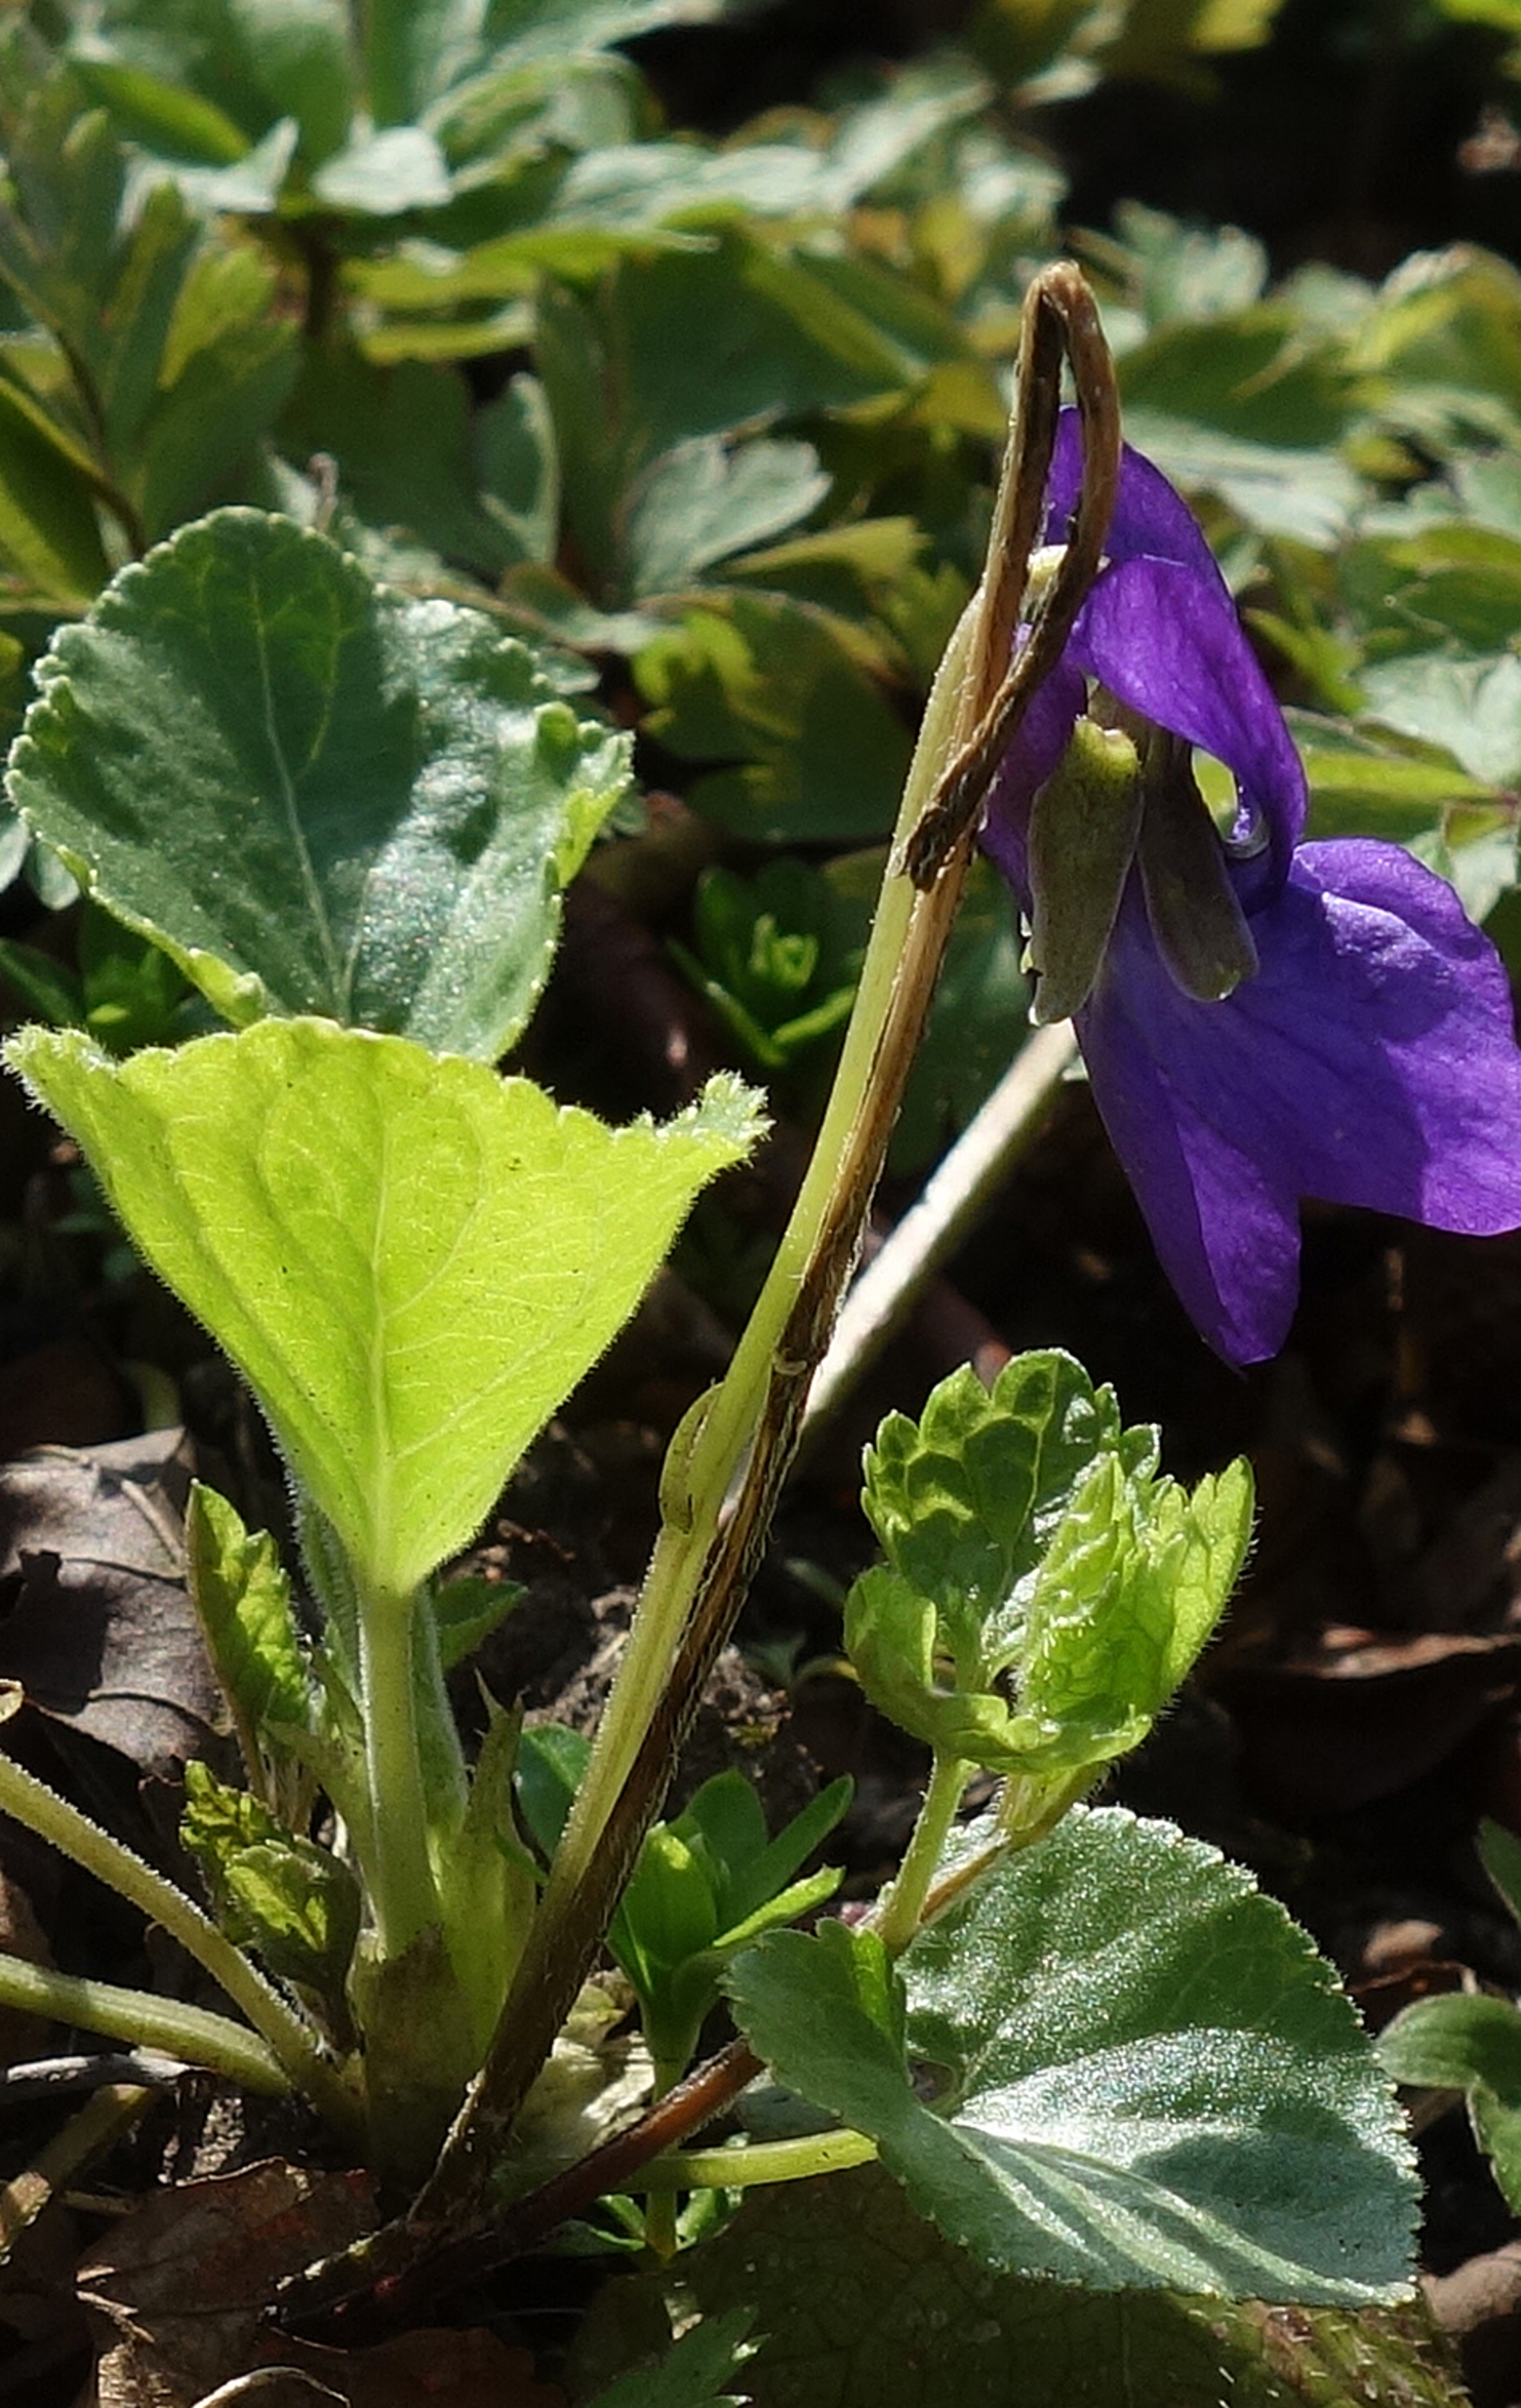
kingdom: Plantae
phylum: Tracheophyta
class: Magnoliopsida
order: Malpighiales
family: Violaceae
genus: Viola
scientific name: Viola riviniana
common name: Krat-viol
